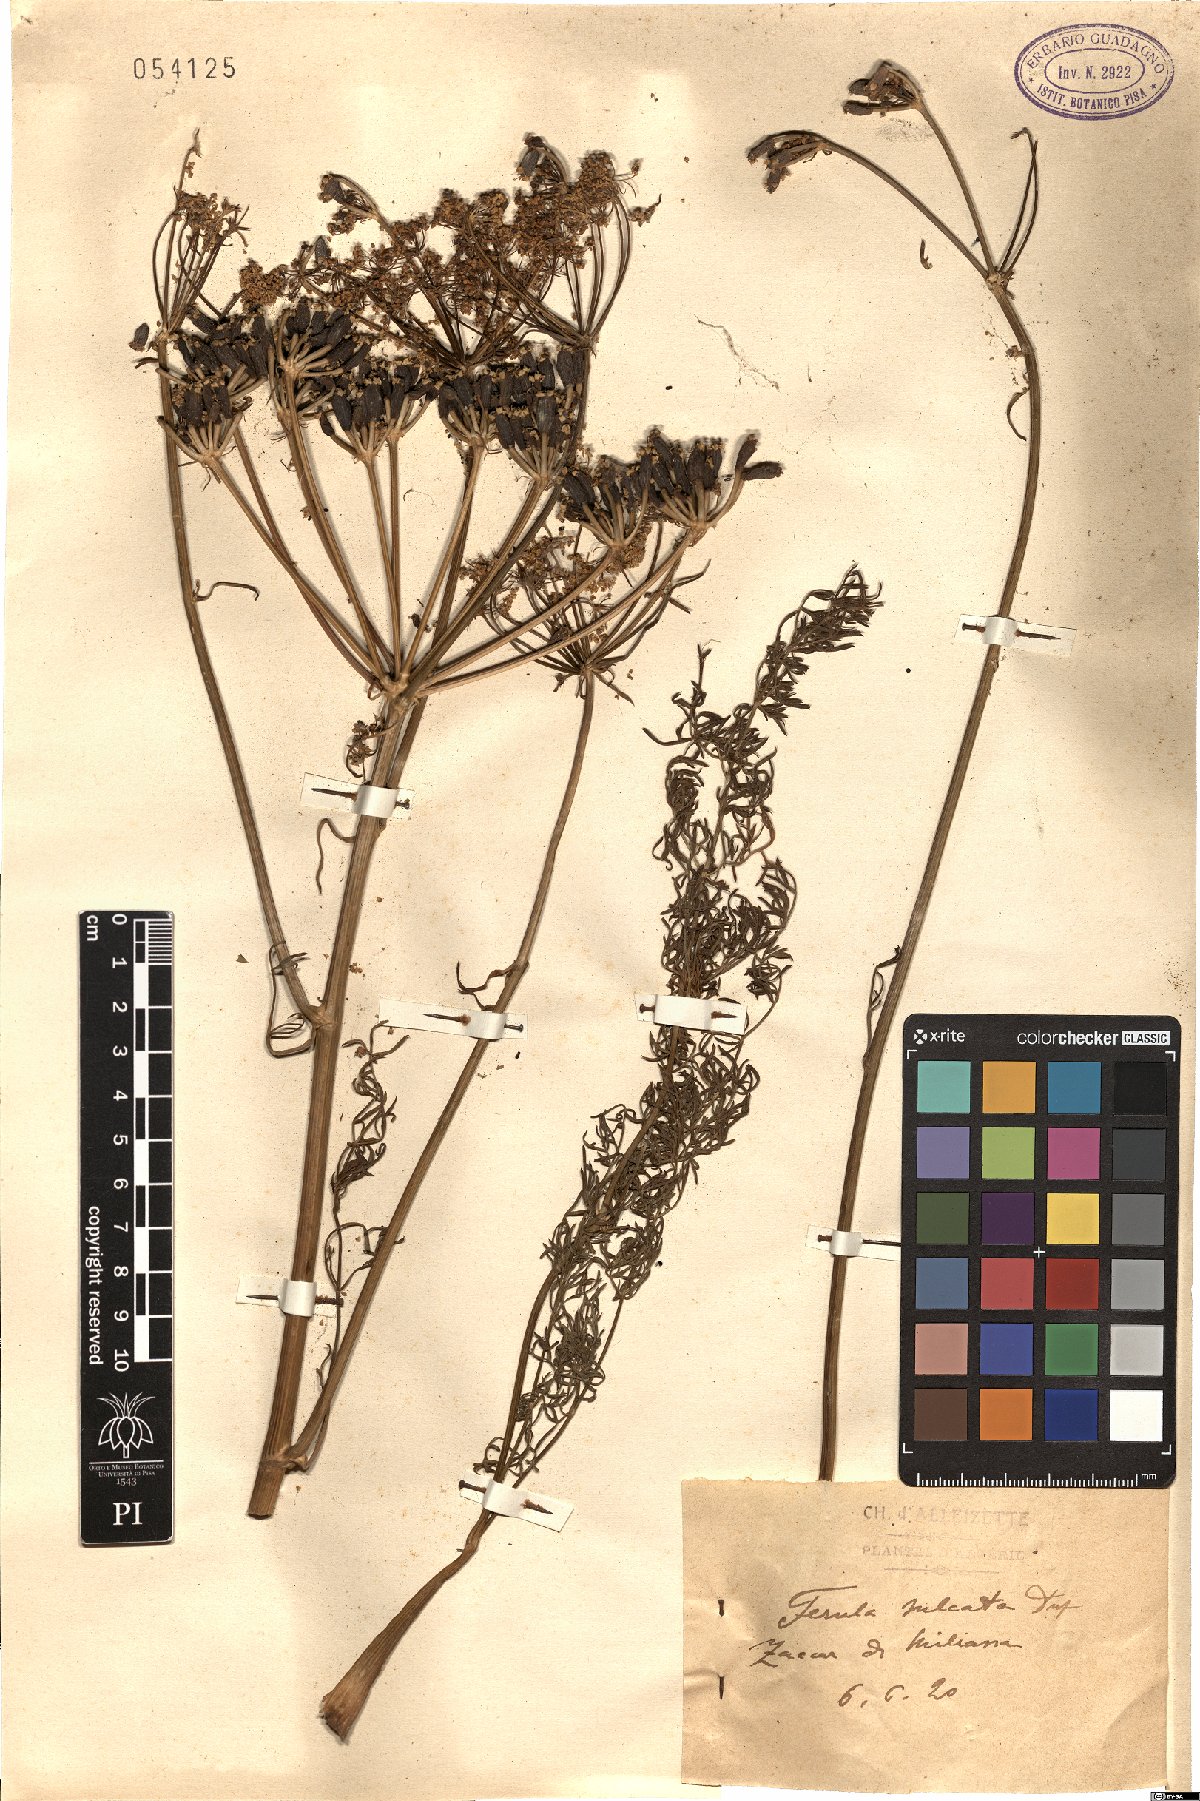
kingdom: Plantae
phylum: Tracheophyta
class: Magnoliopsida
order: Apiales
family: Apiaceae
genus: Ferulago
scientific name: Ferulago lutea
